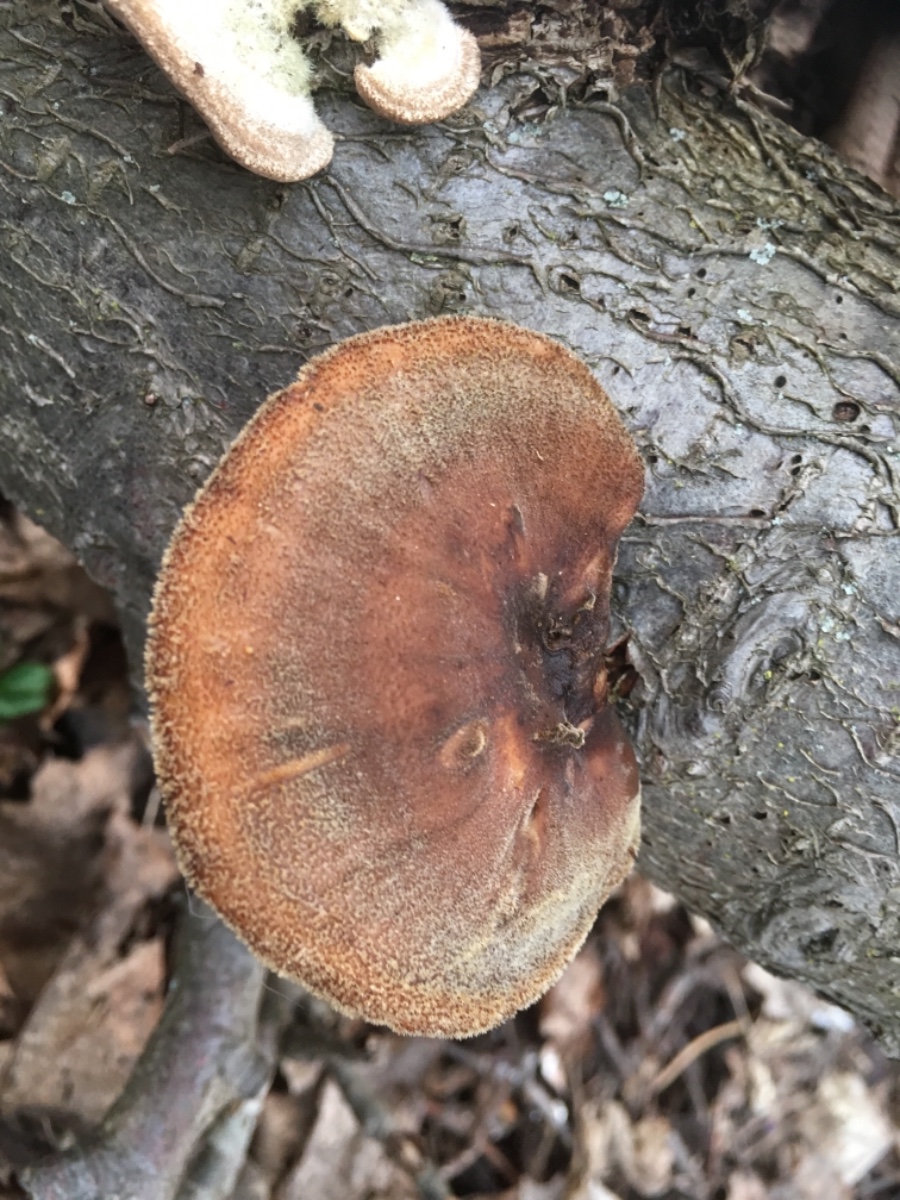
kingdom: Fungi
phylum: Basidiomycota
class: Agaricomycetes
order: Polyporales
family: Polyporaceae
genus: Lentinus
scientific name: Lentinus brumalis
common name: vinter-stilkporesvamp
